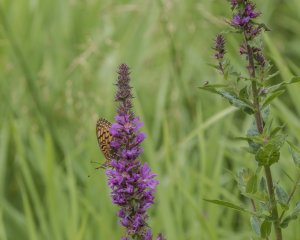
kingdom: Animalia
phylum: Arthropoda
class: Insecta
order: Lepidoptera
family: Nymphalidae
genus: Speyeria
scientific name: Speyeria atlantis
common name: Atlantis Fritillary
